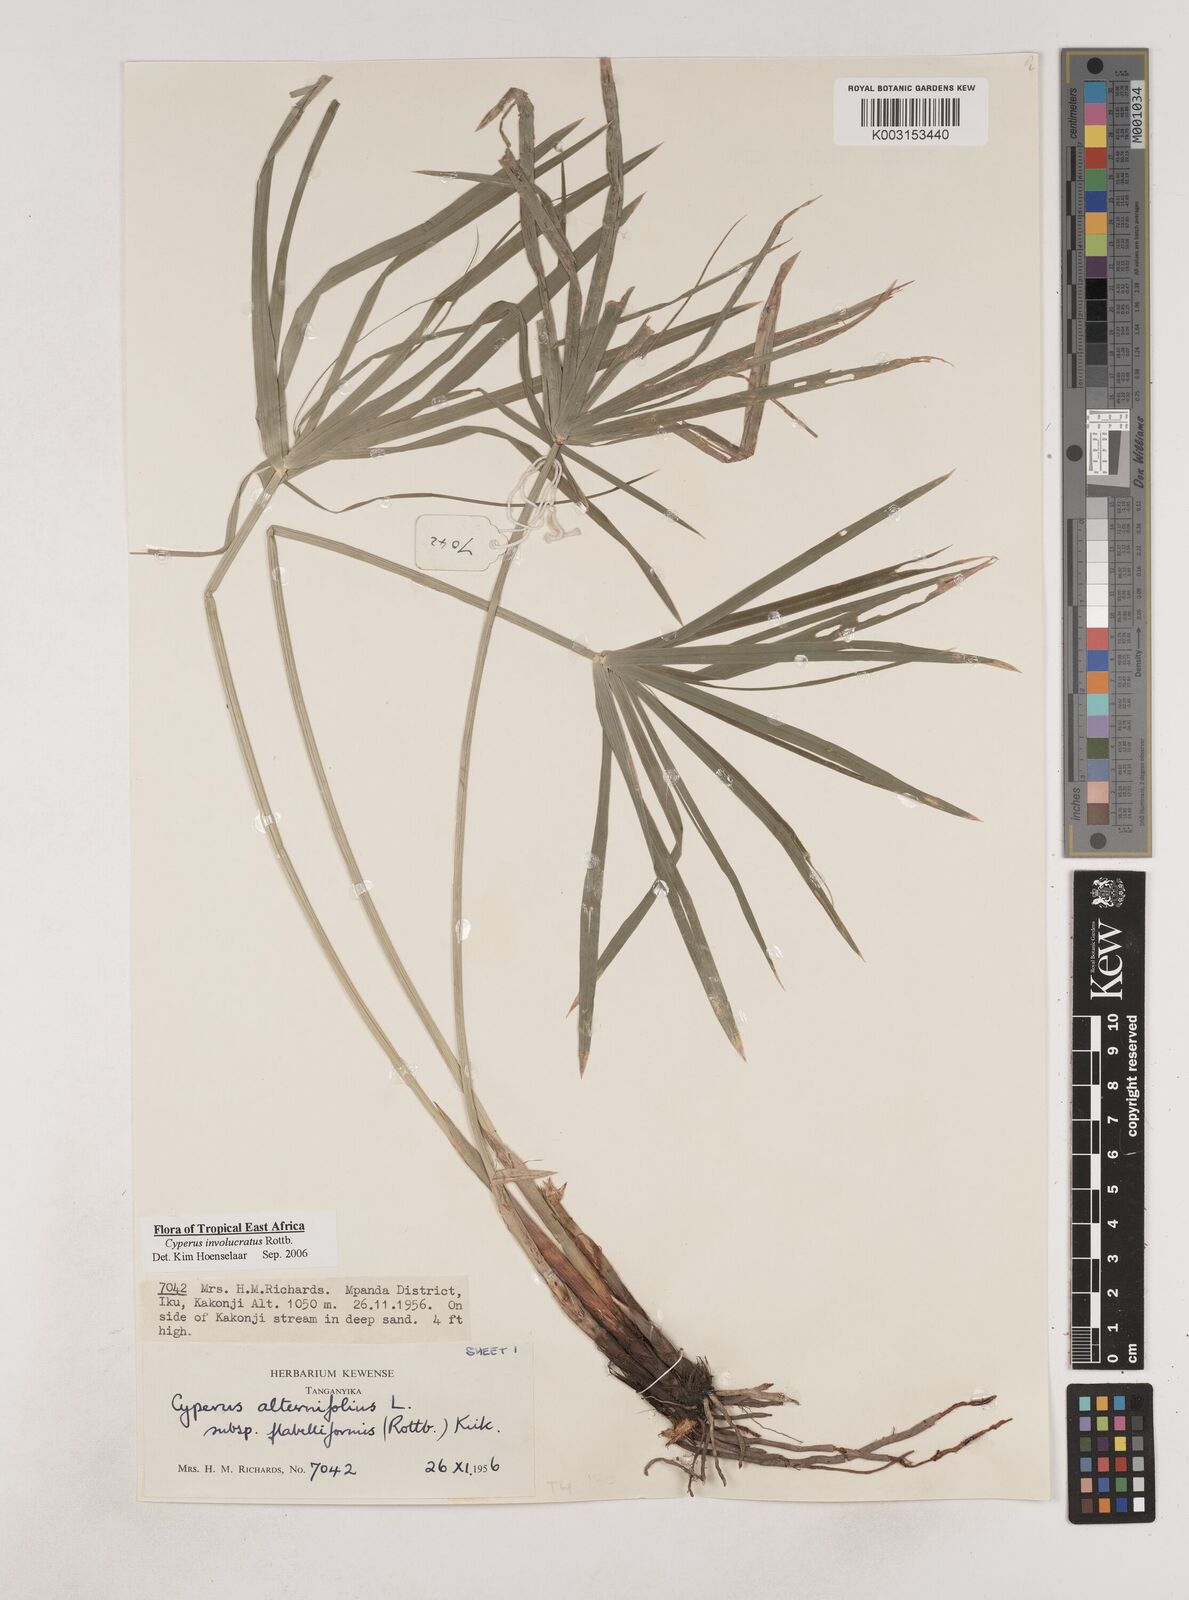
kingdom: Plantae
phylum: Tracheophyta
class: Liliopsida
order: Poales
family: Cyperaceae
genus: Cyperus
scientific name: Cyperus alternifolius
